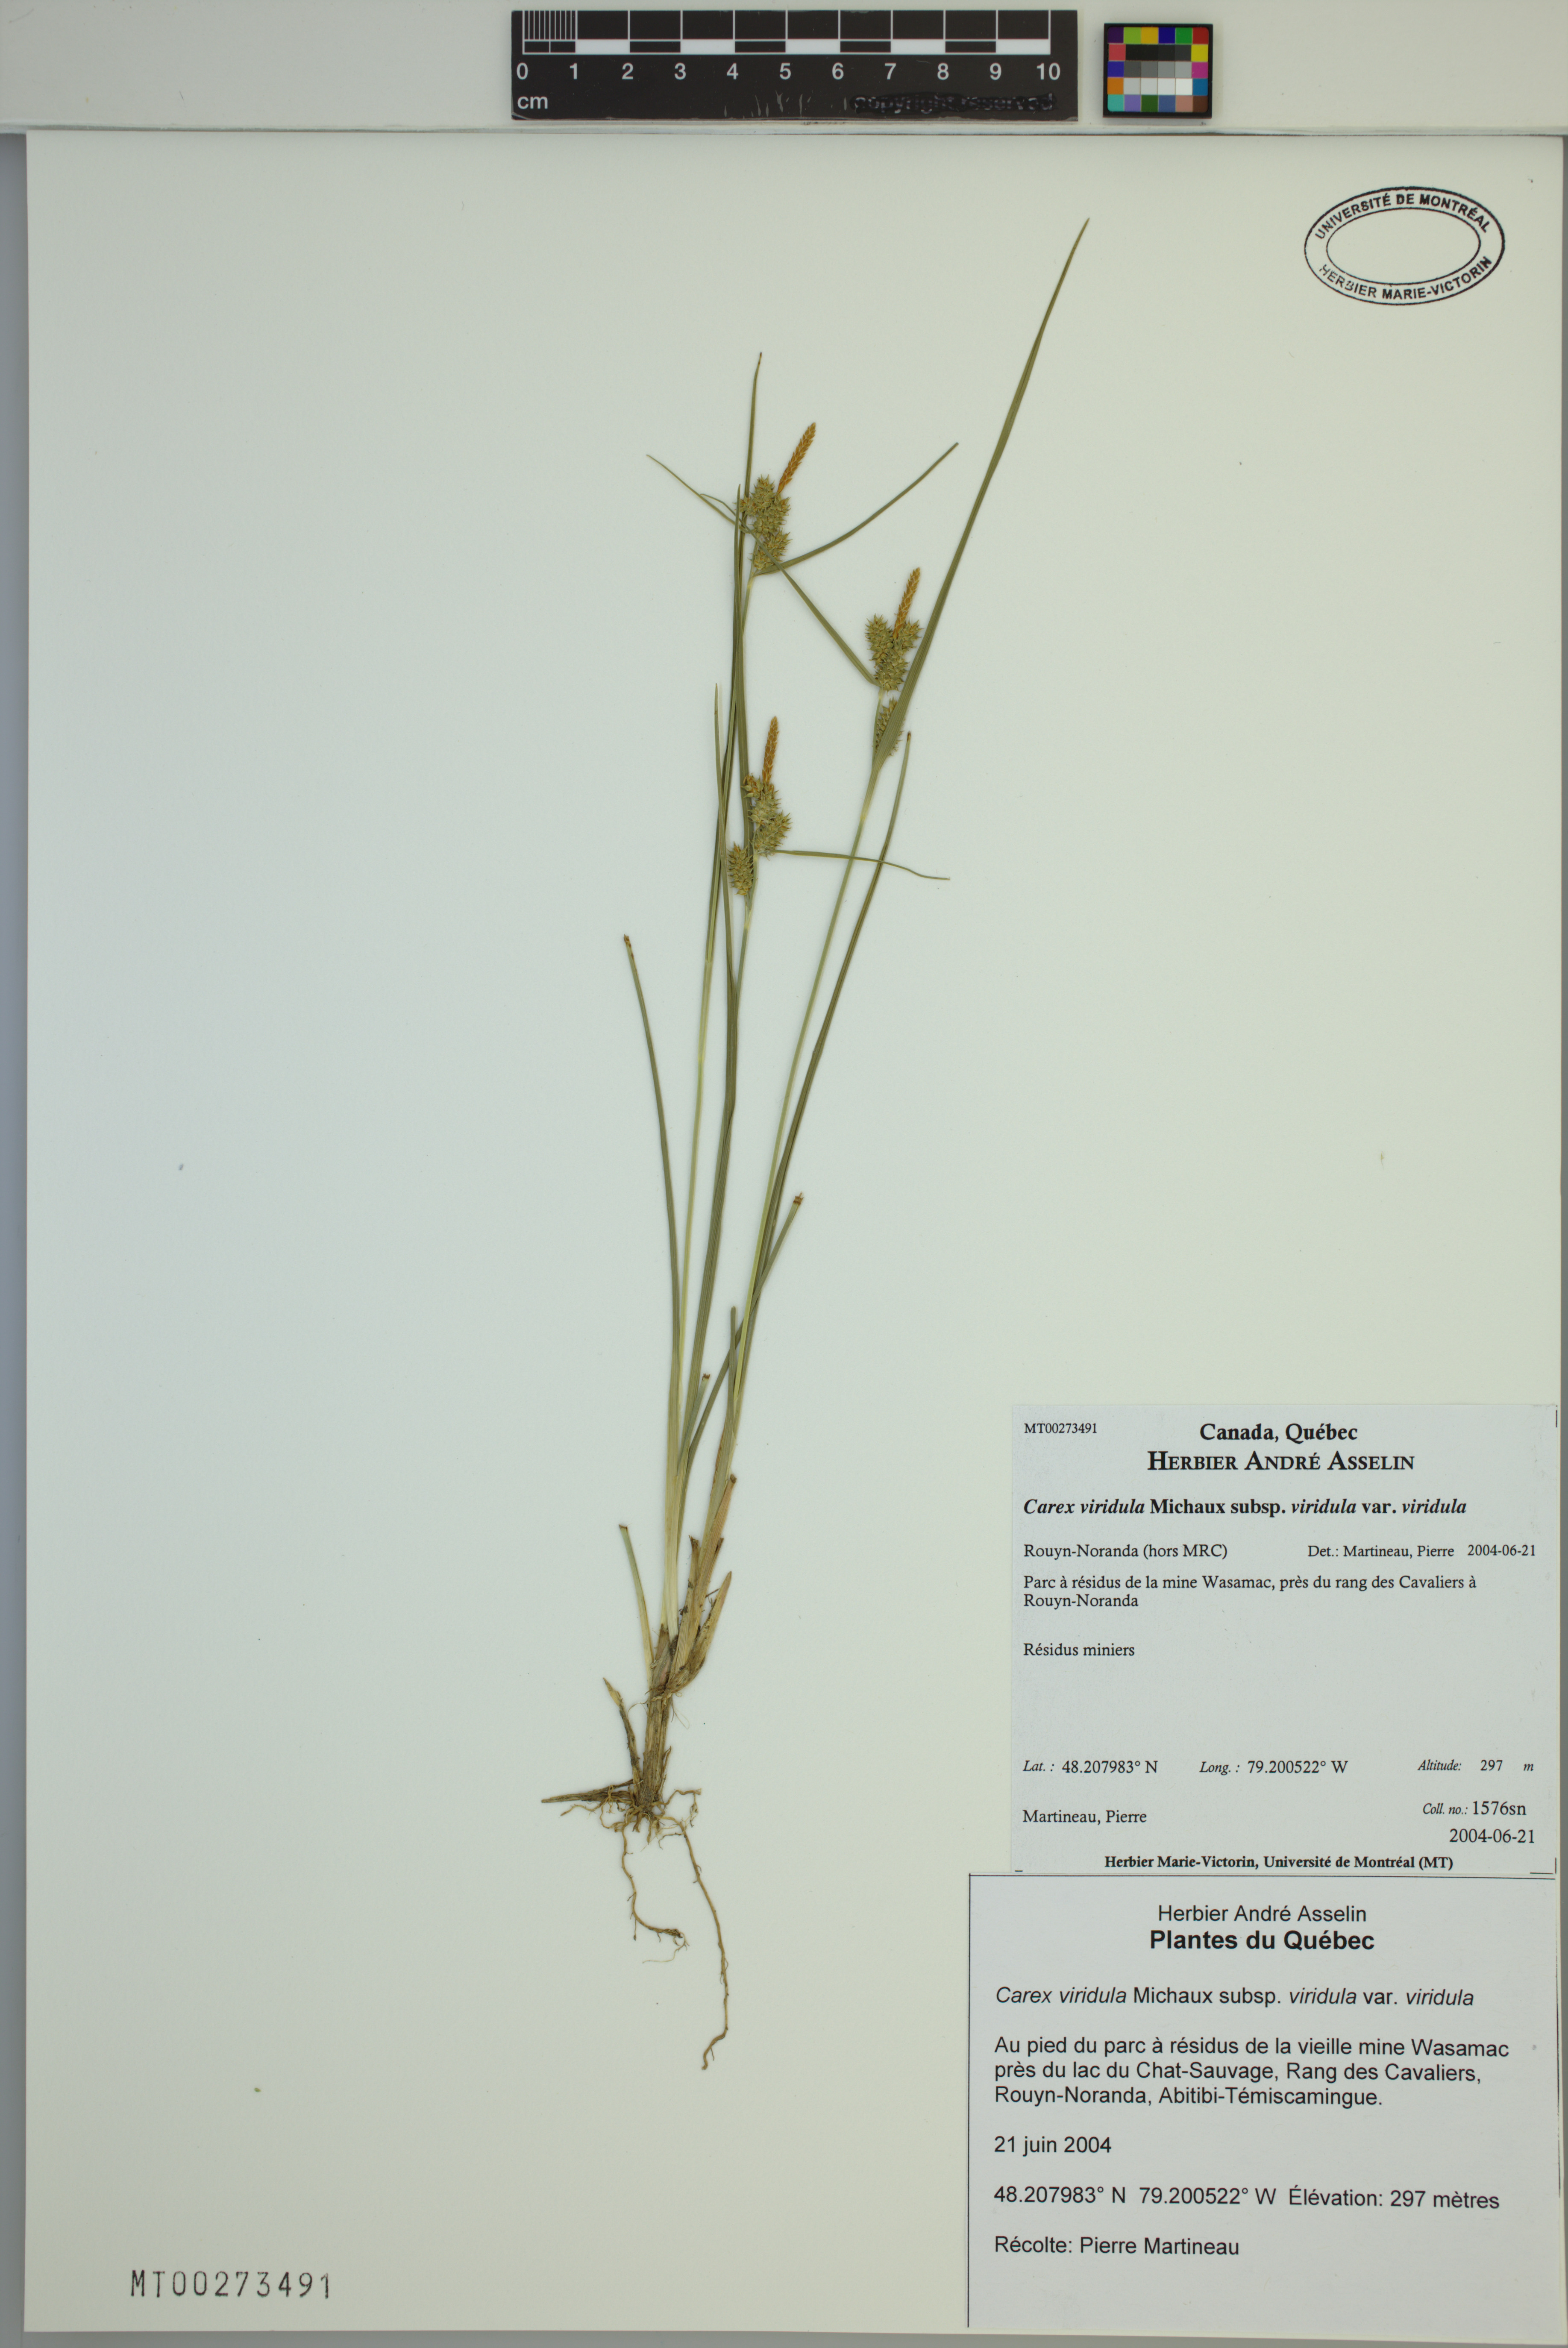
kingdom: Plantae
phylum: Tracheophyta
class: Liliopsida
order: Poales
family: Cyperaceae
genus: Carex
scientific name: Carex oederi
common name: Common & small-fruited yellow-sedge
